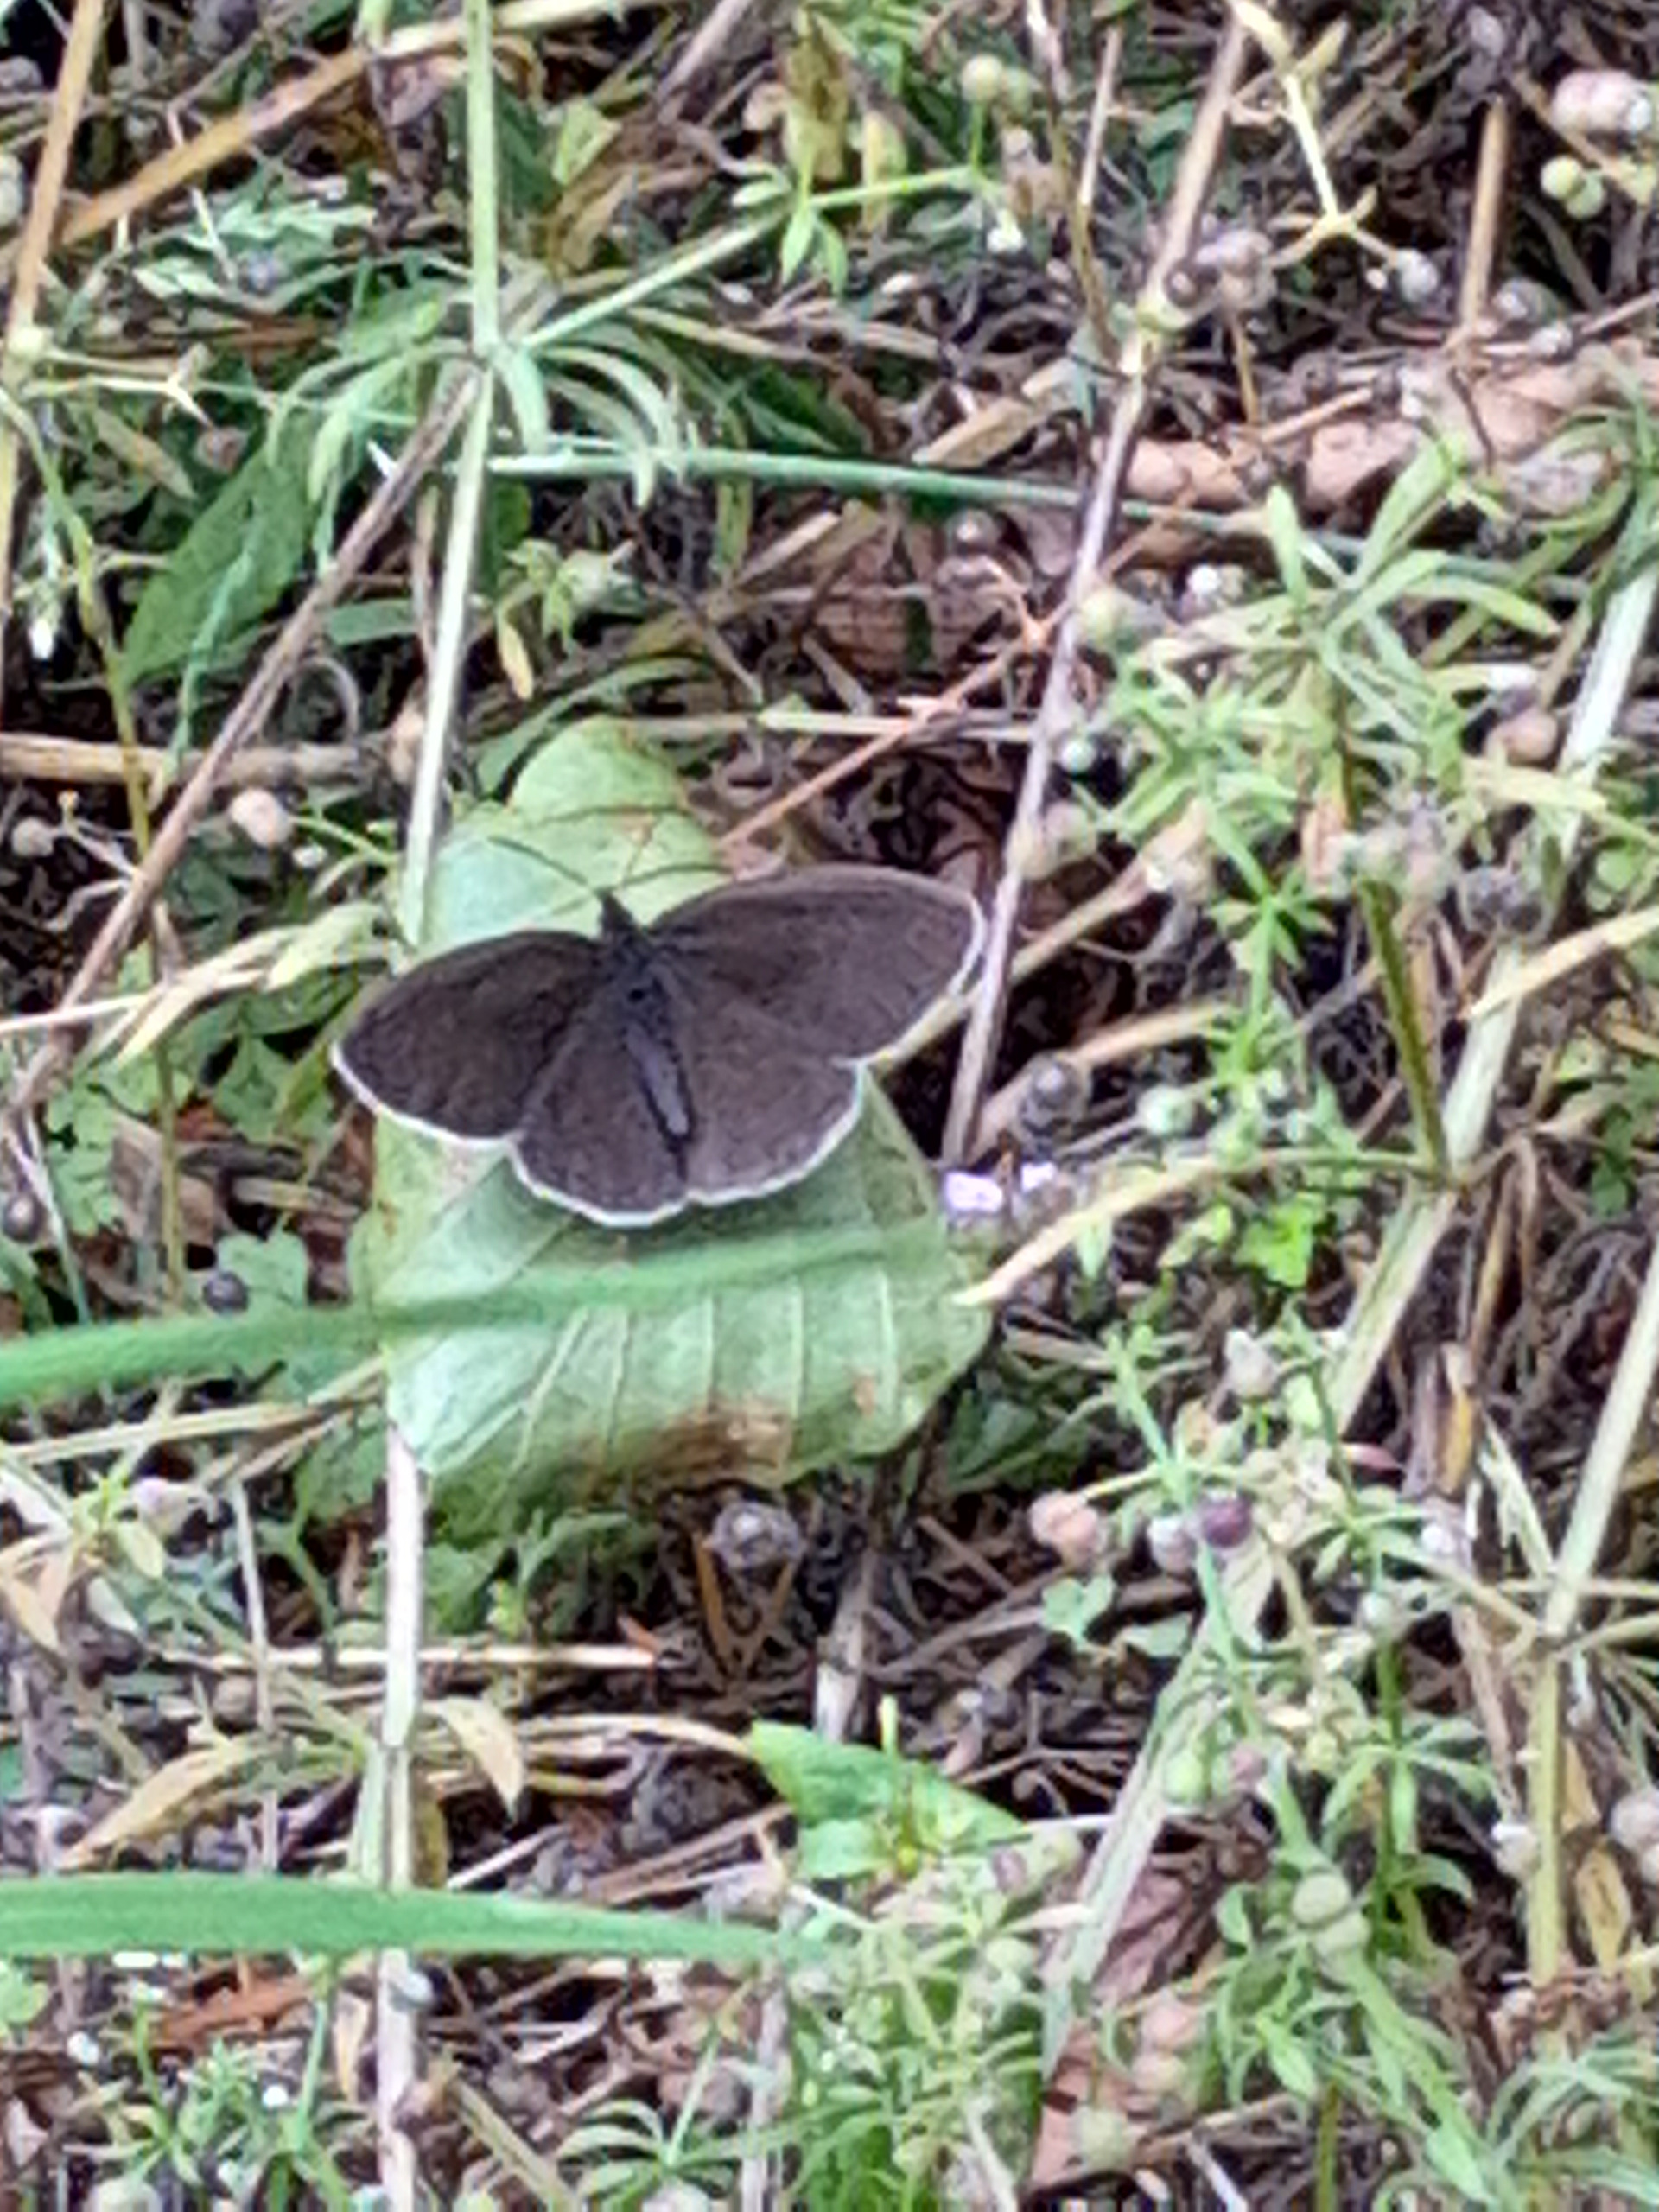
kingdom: Animalia
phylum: Arthropoda
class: Insecta
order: Lepidoptera
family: Nymphalidae
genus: Aphantopus
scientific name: Aphantopus hyperantus
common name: Engrandøje
